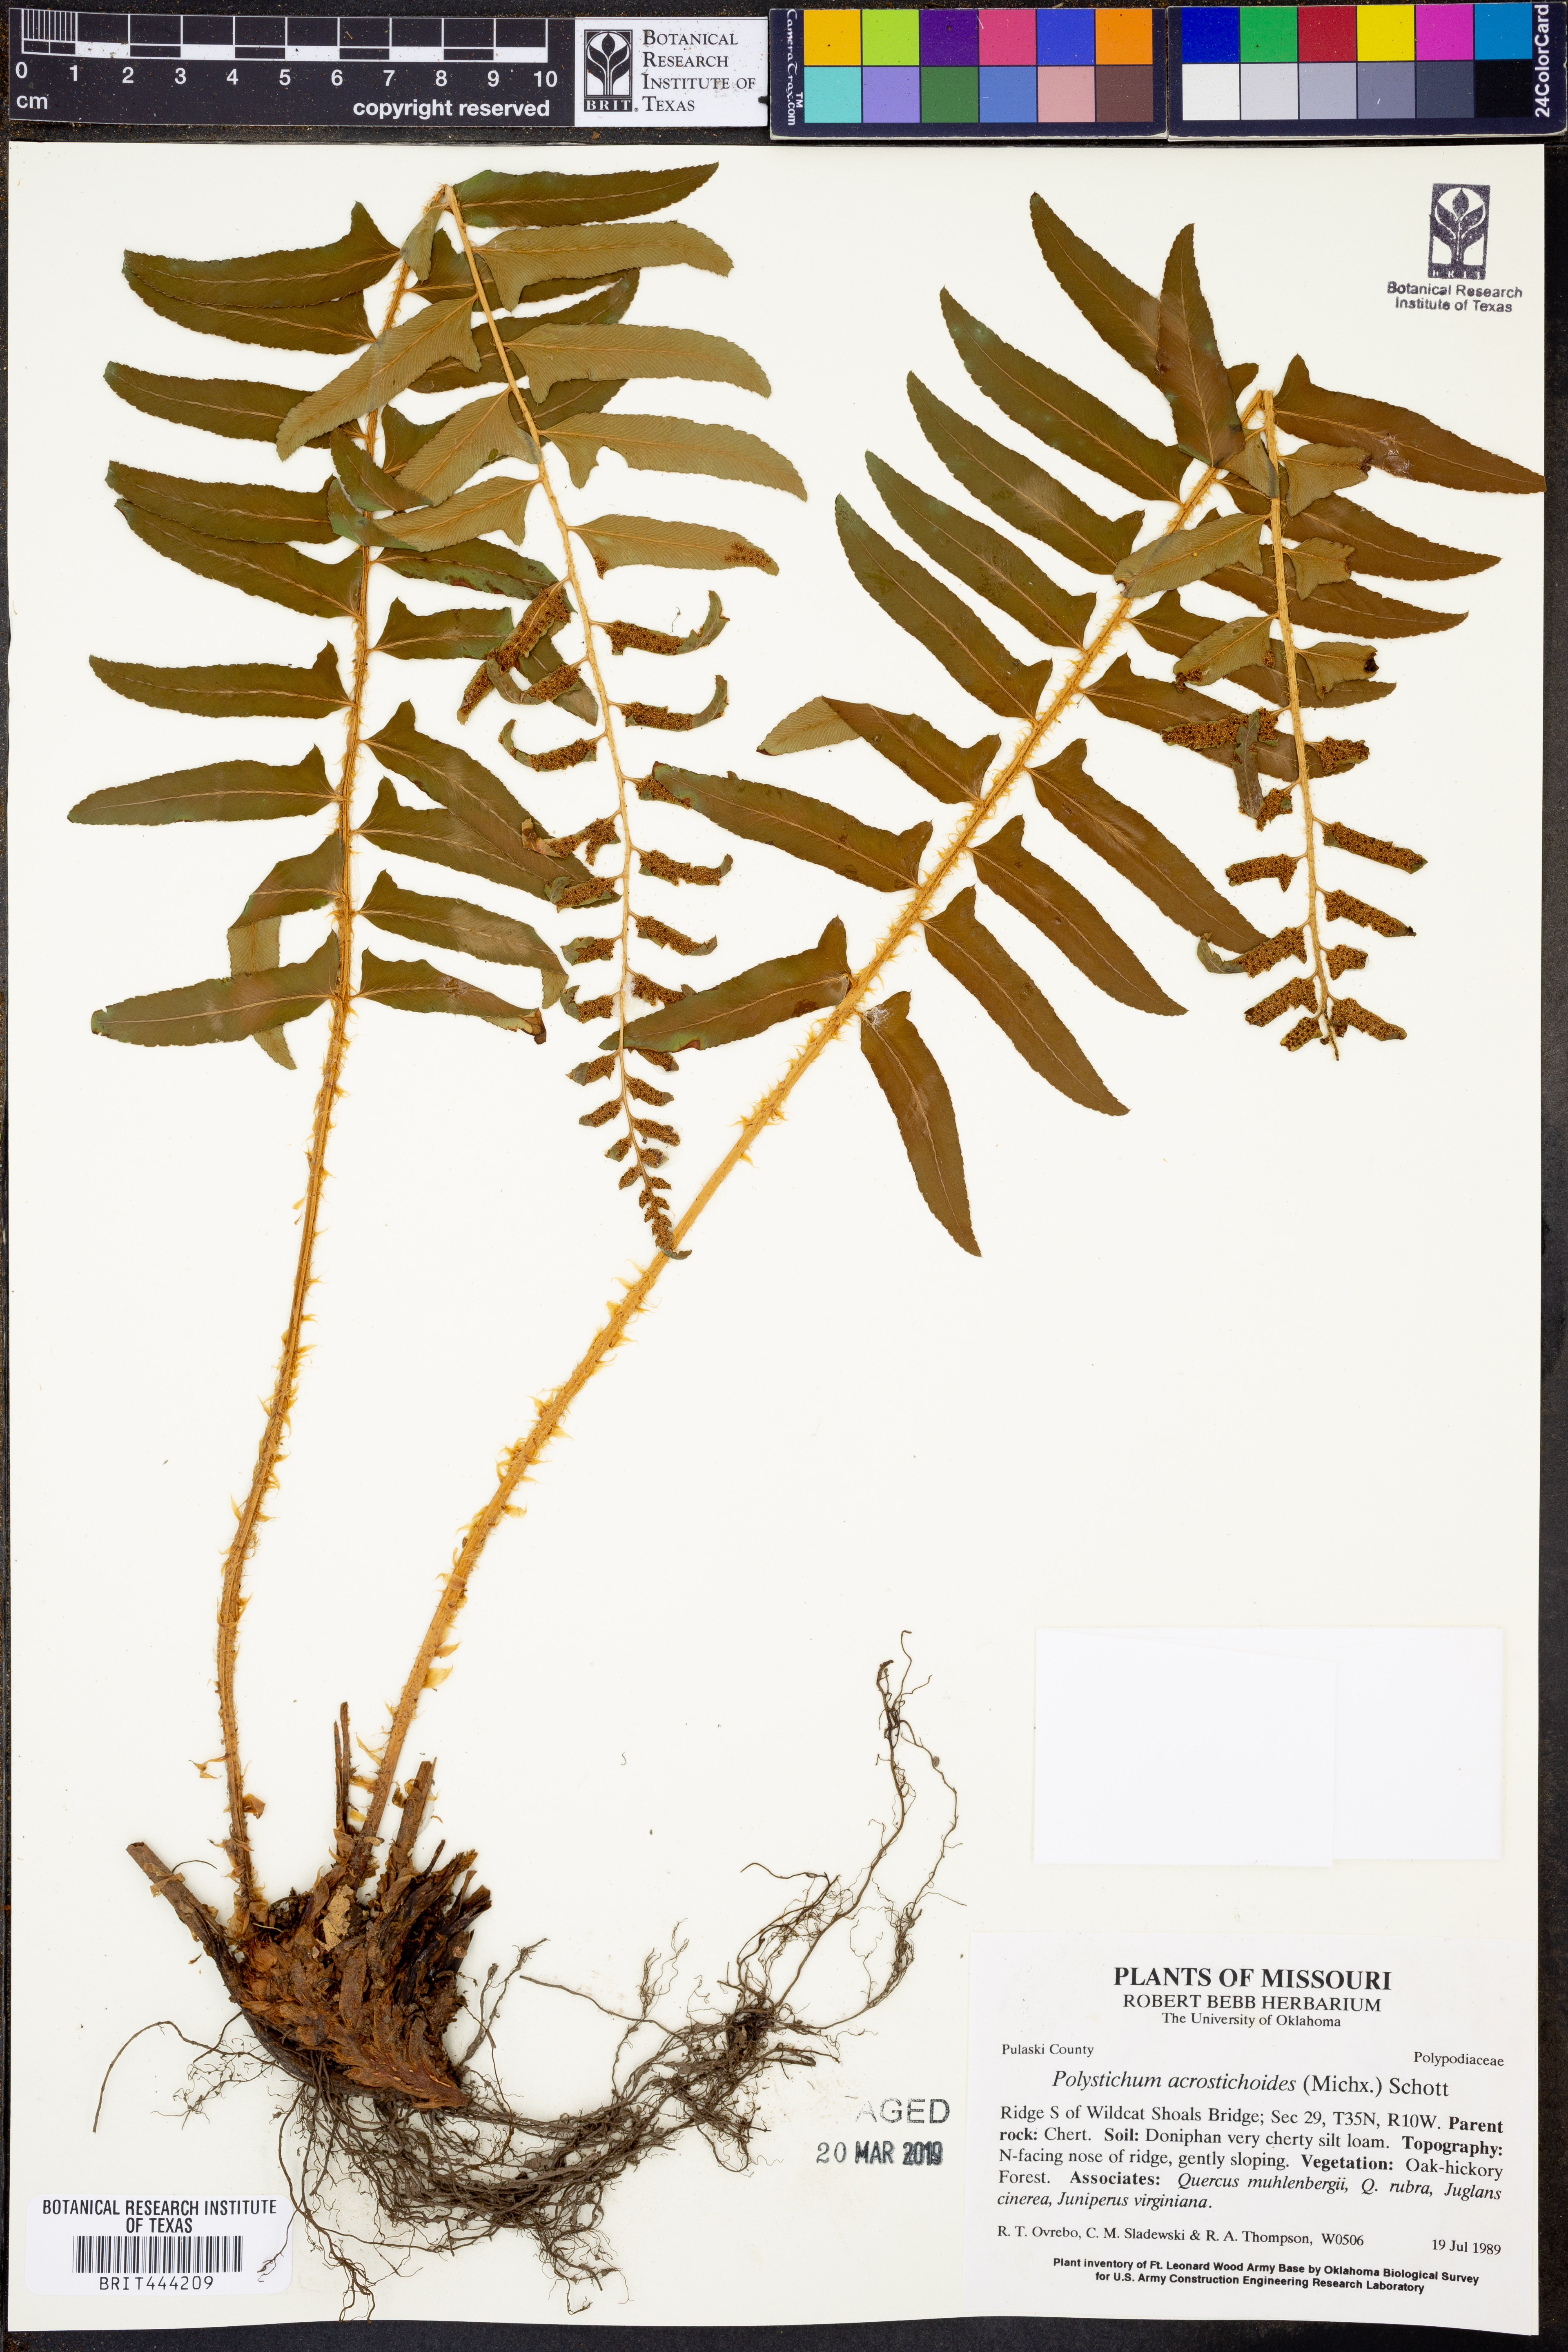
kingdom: Plantae
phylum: Tracheophyta
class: Polypodiopsida
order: Polypodiales
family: Dryopteridaceae
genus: Polystichum
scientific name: Polystichum acrostichoides
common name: Christmas fern
